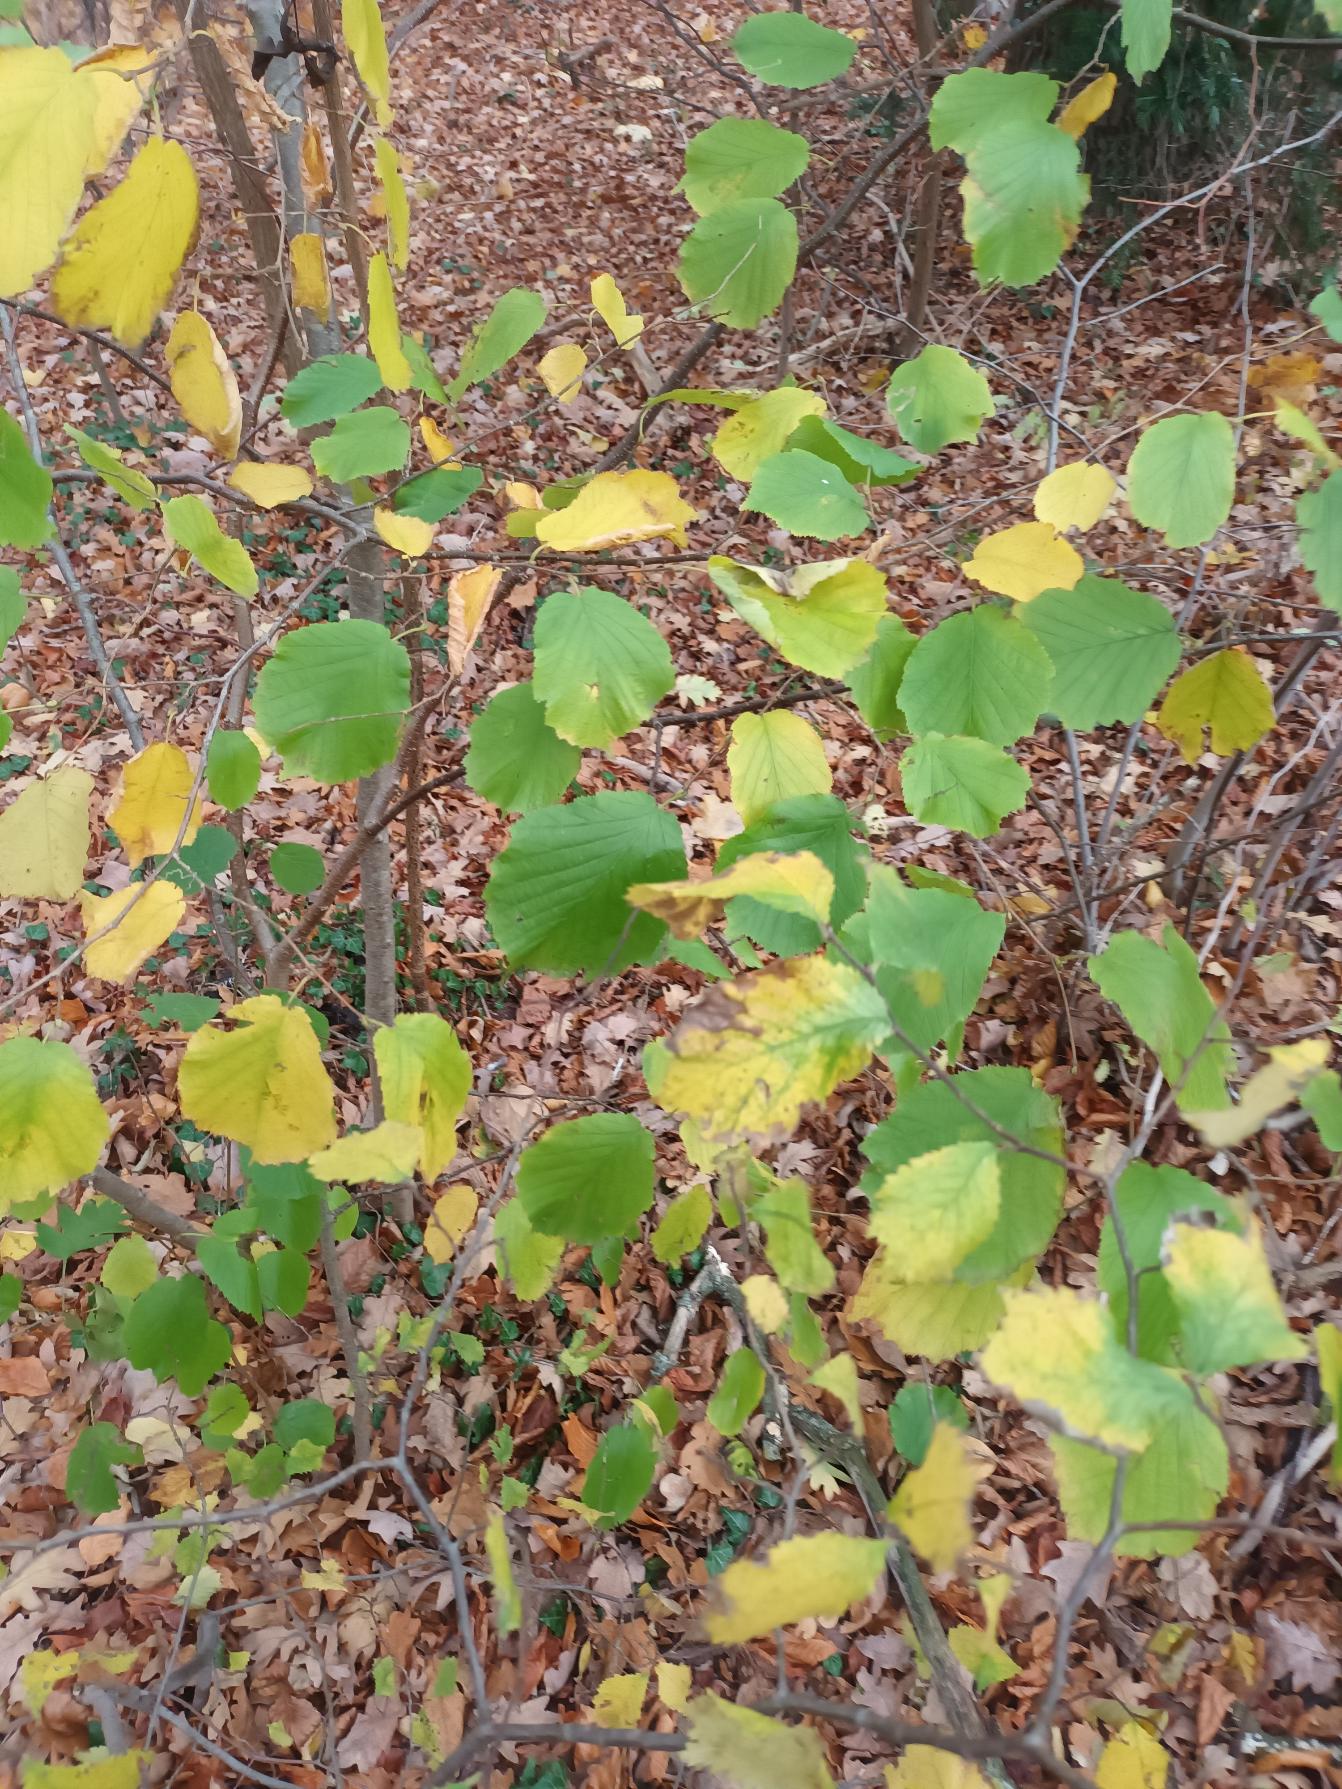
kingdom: Plantae
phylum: Tracheophyta
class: Magnoliopsida
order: Fagales
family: Betulaceae
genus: Corylus
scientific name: Corylus avellana
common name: Hassel
